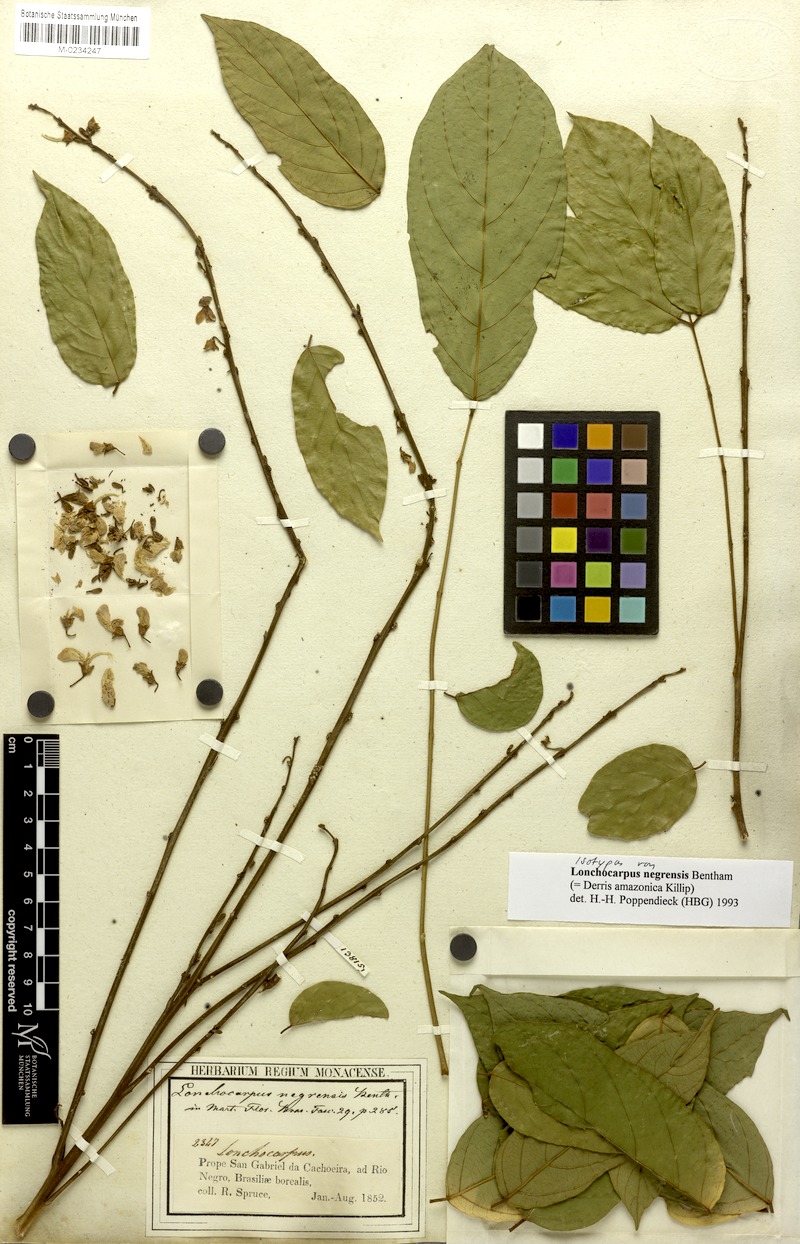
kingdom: Plantae
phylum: Tracheophyta
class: Magnoliopsida
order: Fabales
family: Fabaceae
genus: Deguelia
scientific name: Deguelia amazonica
